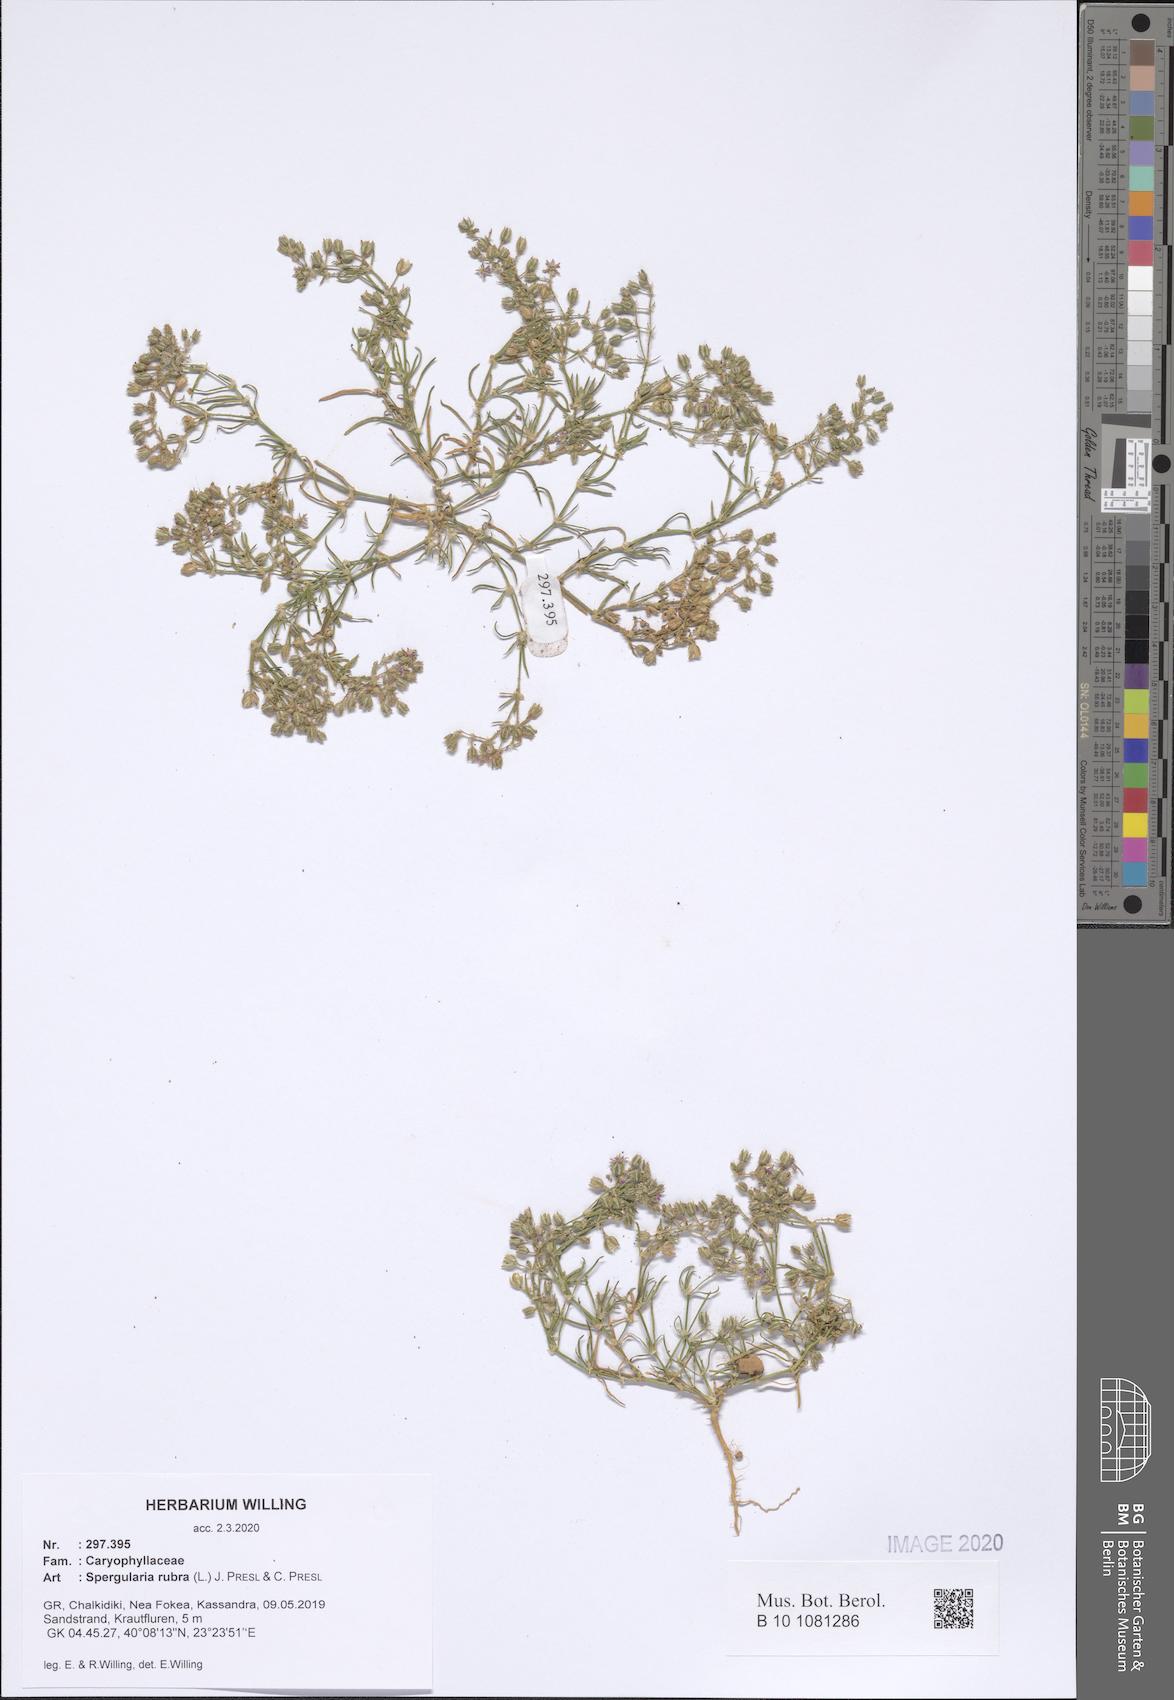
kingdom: Plantae
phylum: Tracheophyta
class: Magnoliopsida
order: Caryophyllales
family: Caryophyllaceae
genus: Spergularia
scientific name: Spergularia rubra
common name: Red sand-spurrey
